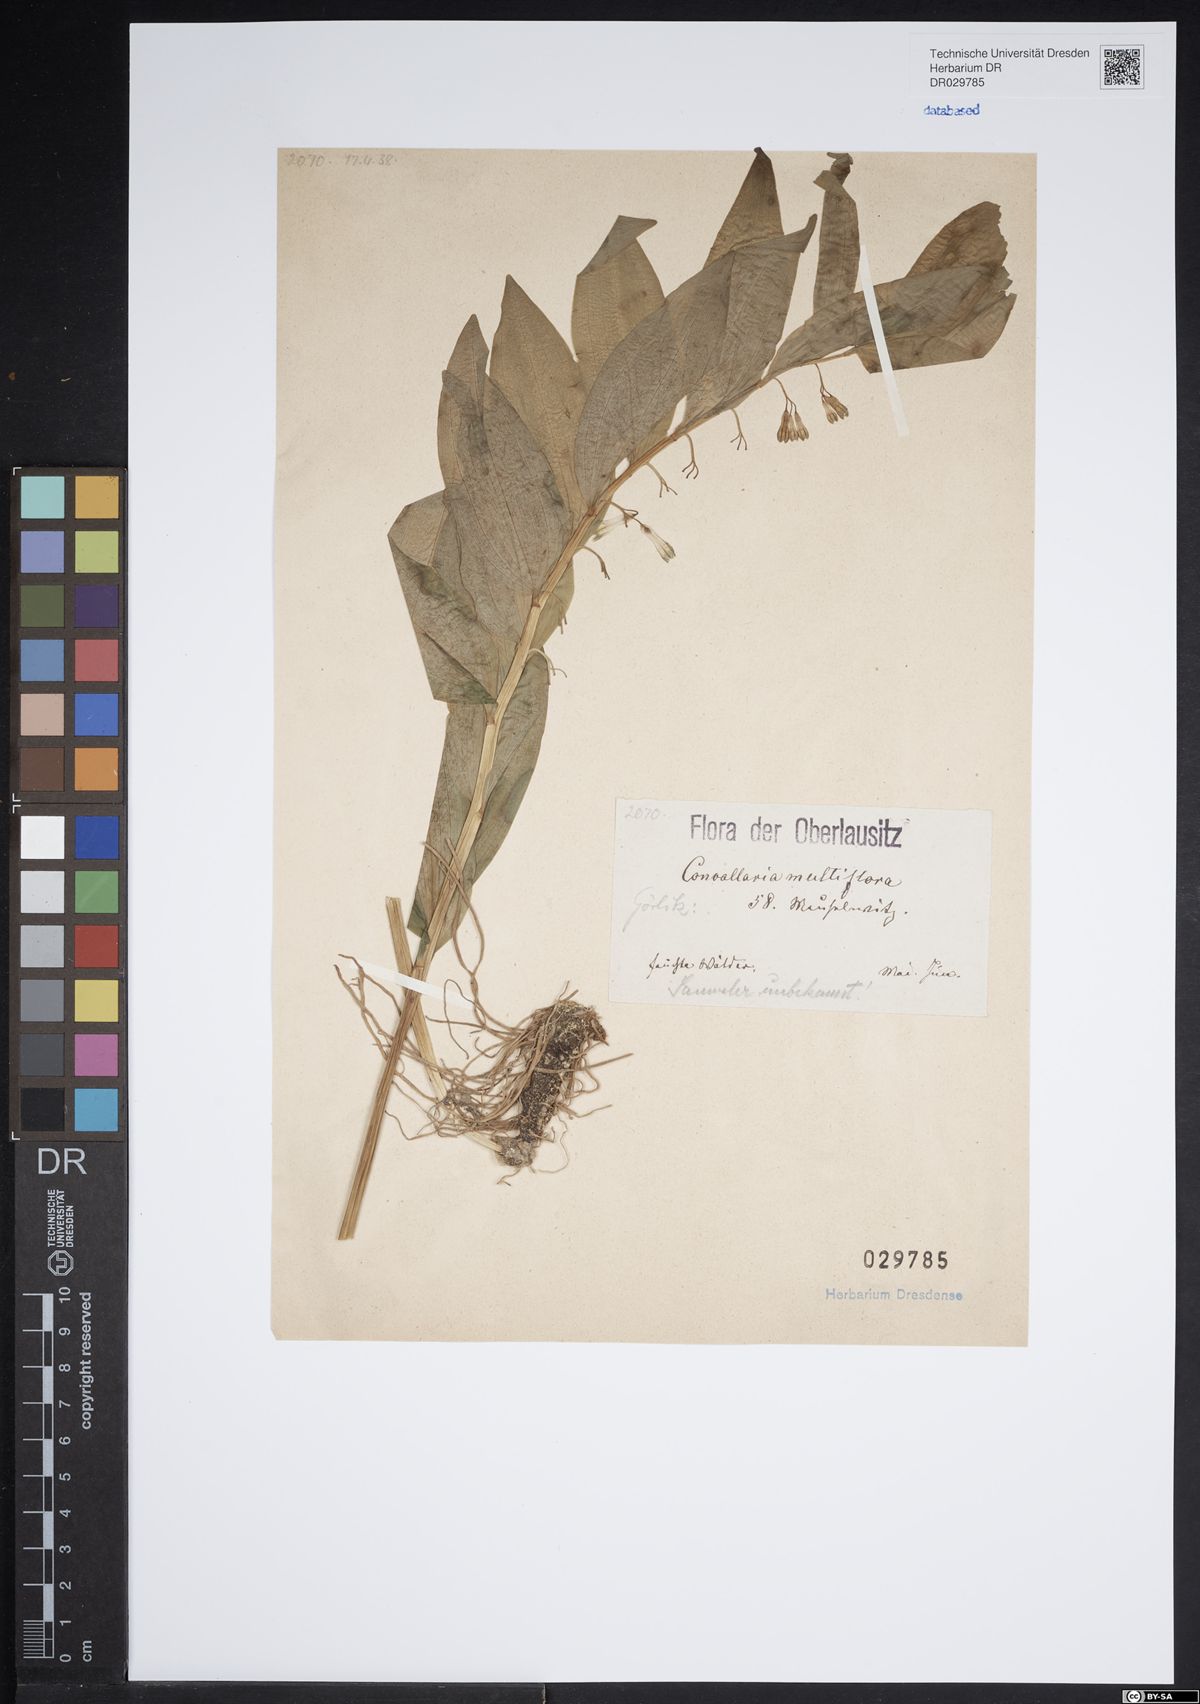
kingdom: Plantae
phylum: Tracheophyta
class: Liliopsida
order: Asparagales
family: Asparagaceae
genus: Polygonatum
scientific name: Polygonatum multiflorum
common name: Solomon's-seal
